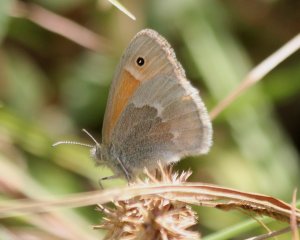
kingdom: Animalia
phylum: Arthropoda
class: Insecta
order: Lepidoptera
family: Nymphalidae
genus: Coenonympha
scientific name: Coenonympha tullia
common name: Large Heath
